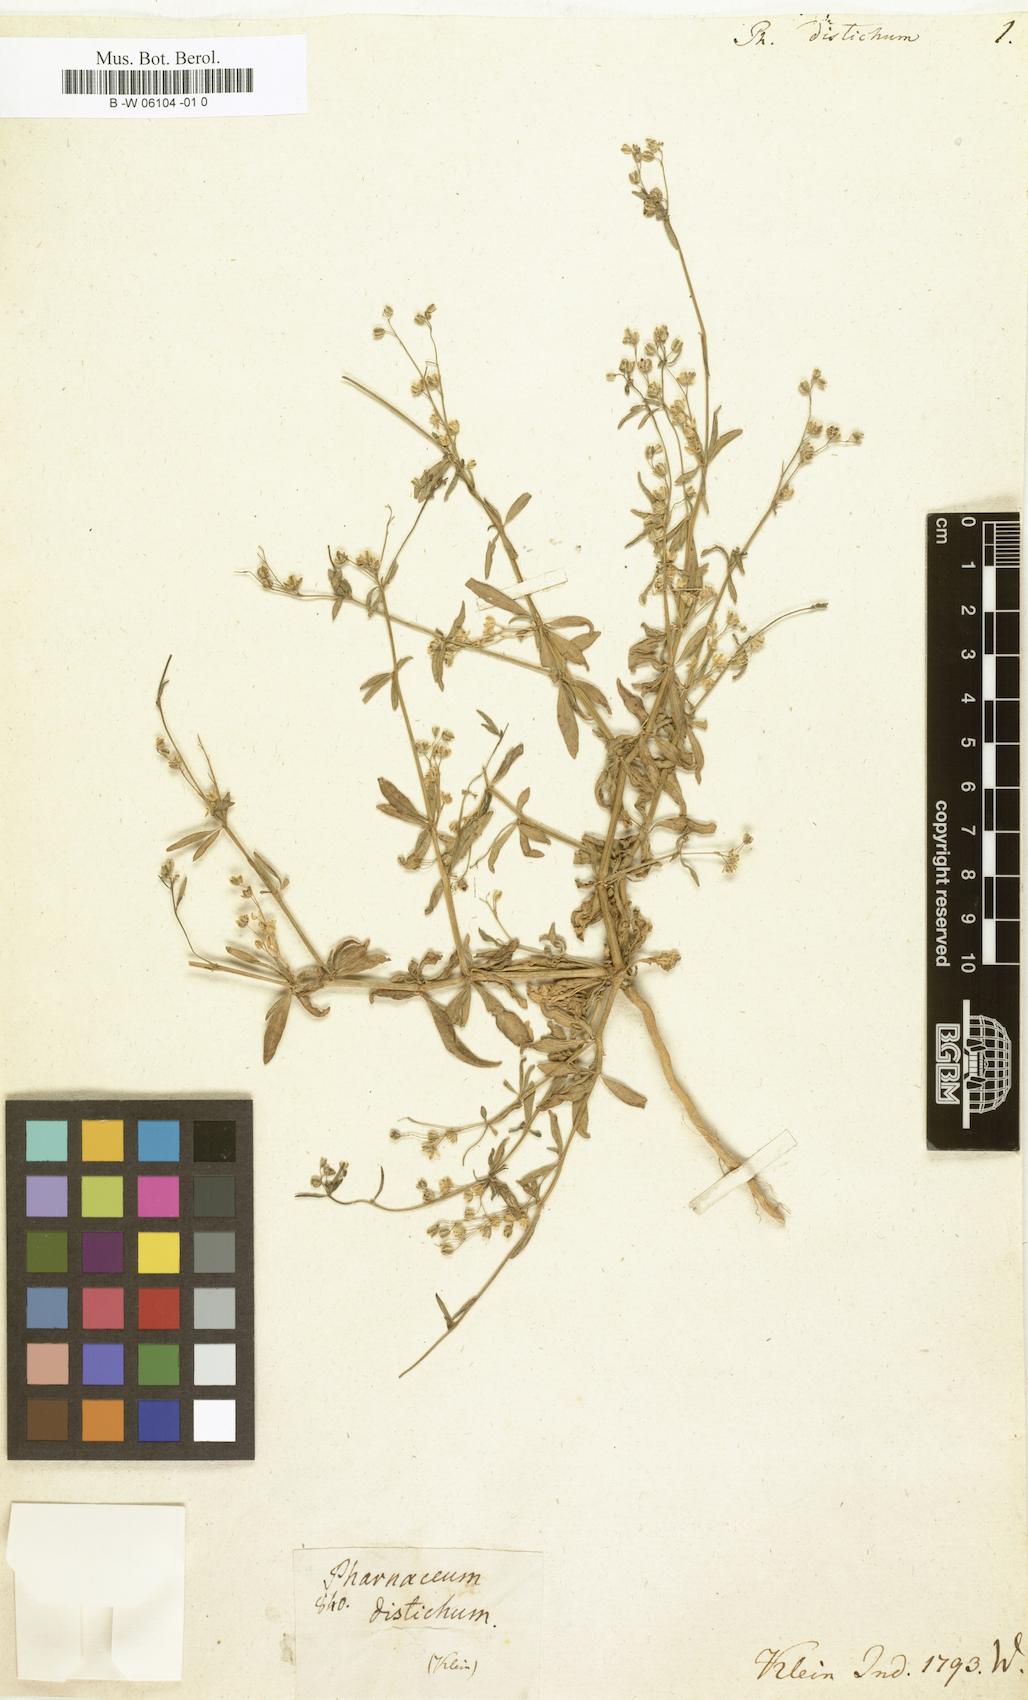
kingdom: Plantae
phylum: Tracheophyta
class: Magnoliopsida
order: Caryophyllales
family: Molluginaceae
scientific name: Molluginaceae
